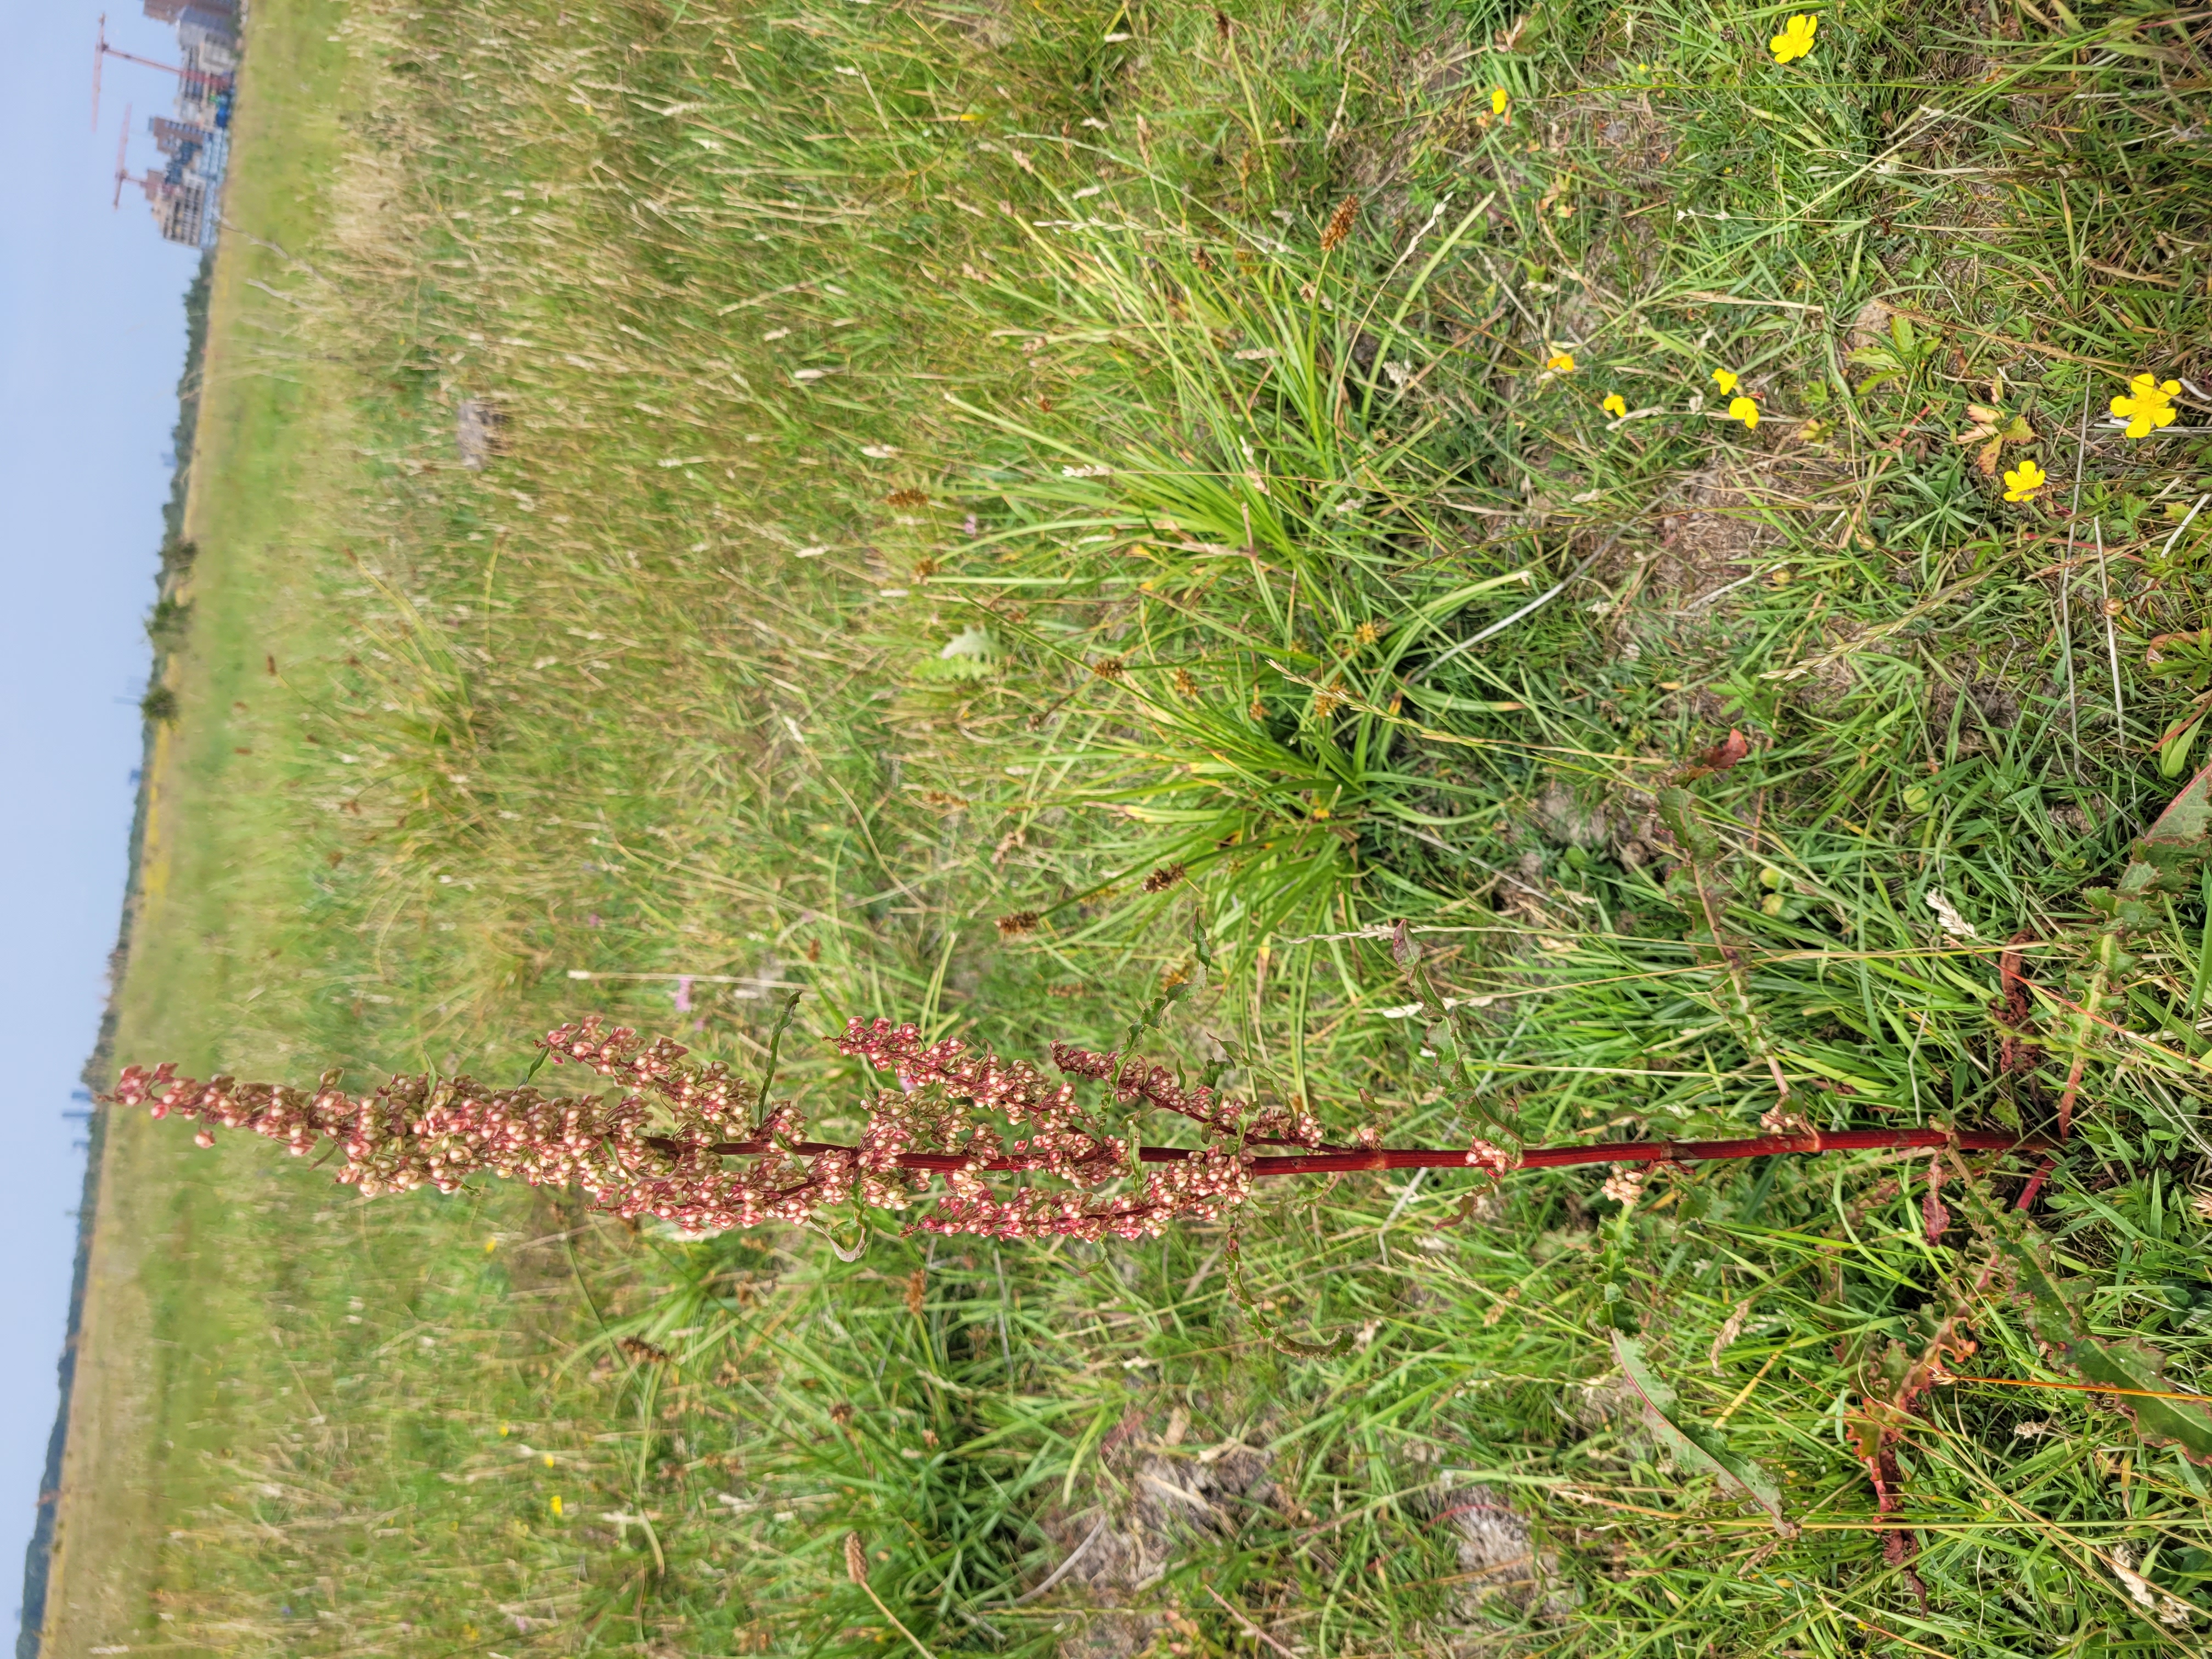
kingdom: Plantae
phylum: Tracheophyta
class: Magnoliopsida
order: Caryophyllales
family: Polygonaceae
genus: Rumex
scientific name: Rumex crispus
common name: Kruset skræppe
